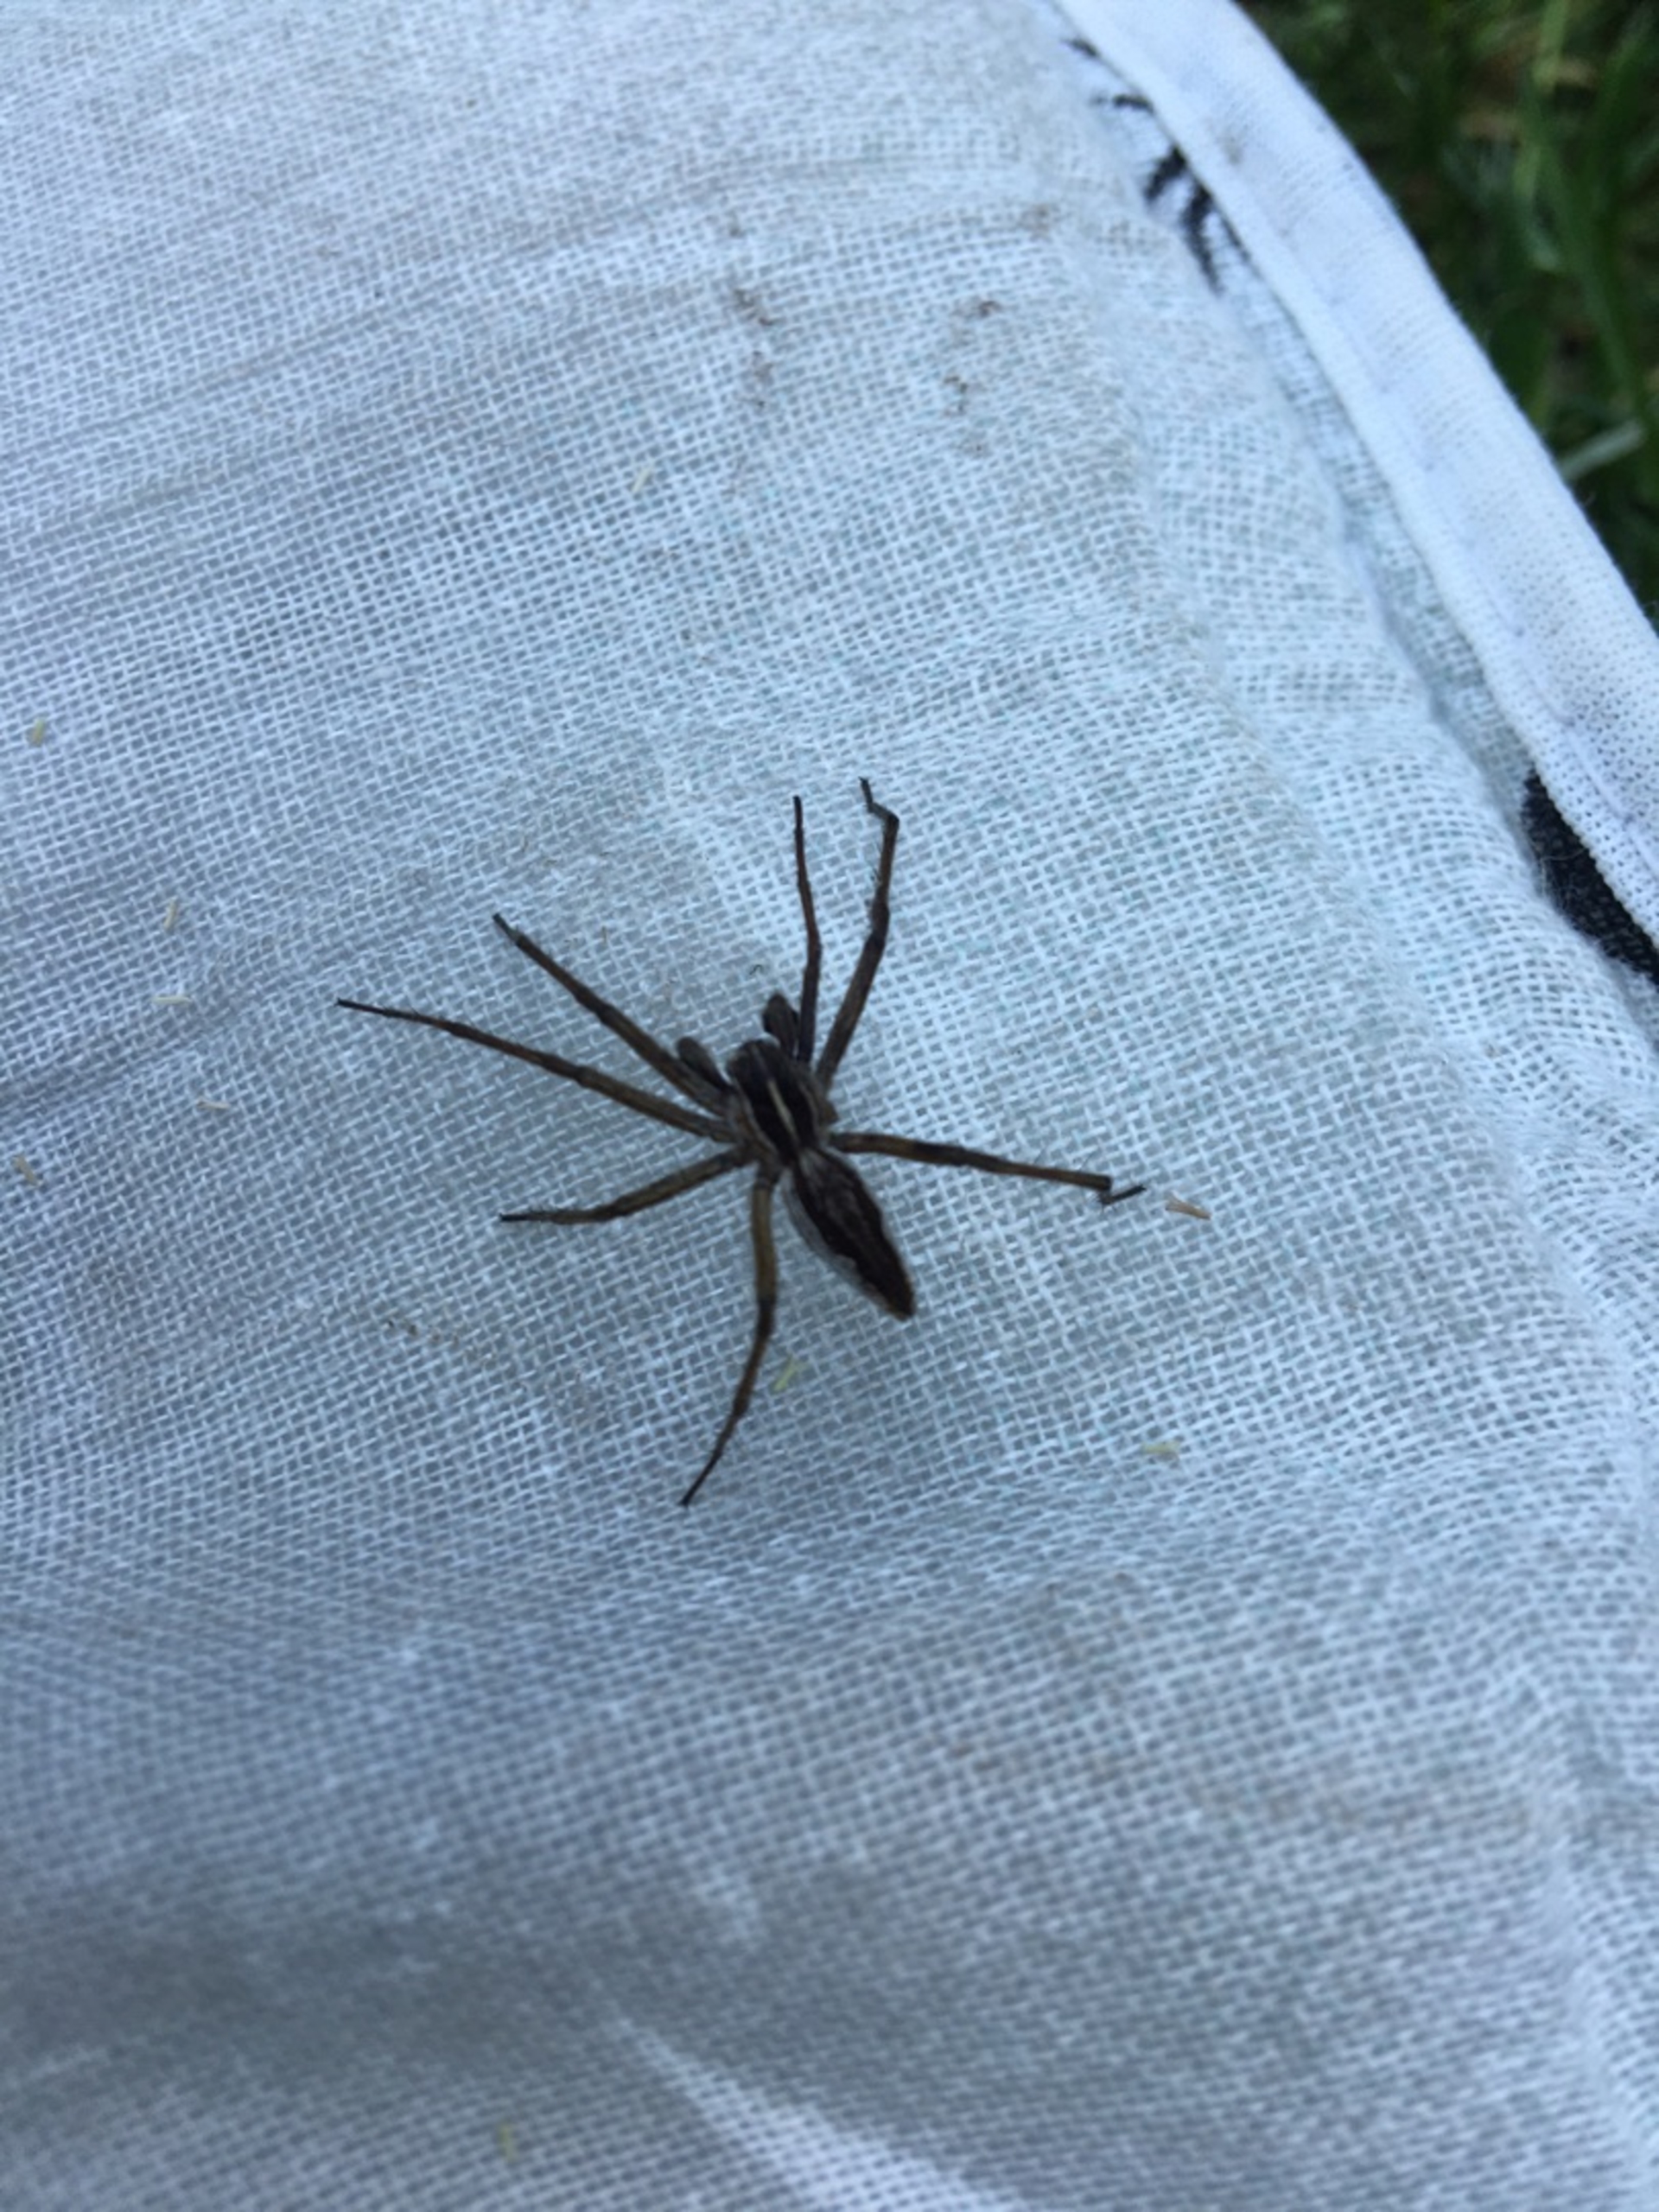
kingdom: Animalia
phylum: Arthropoda
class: Arachnida
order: Araneae
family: Pisauridae
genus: Pisaura
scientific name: Pisaura mirabilis
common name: Almindelig rovedderkop
